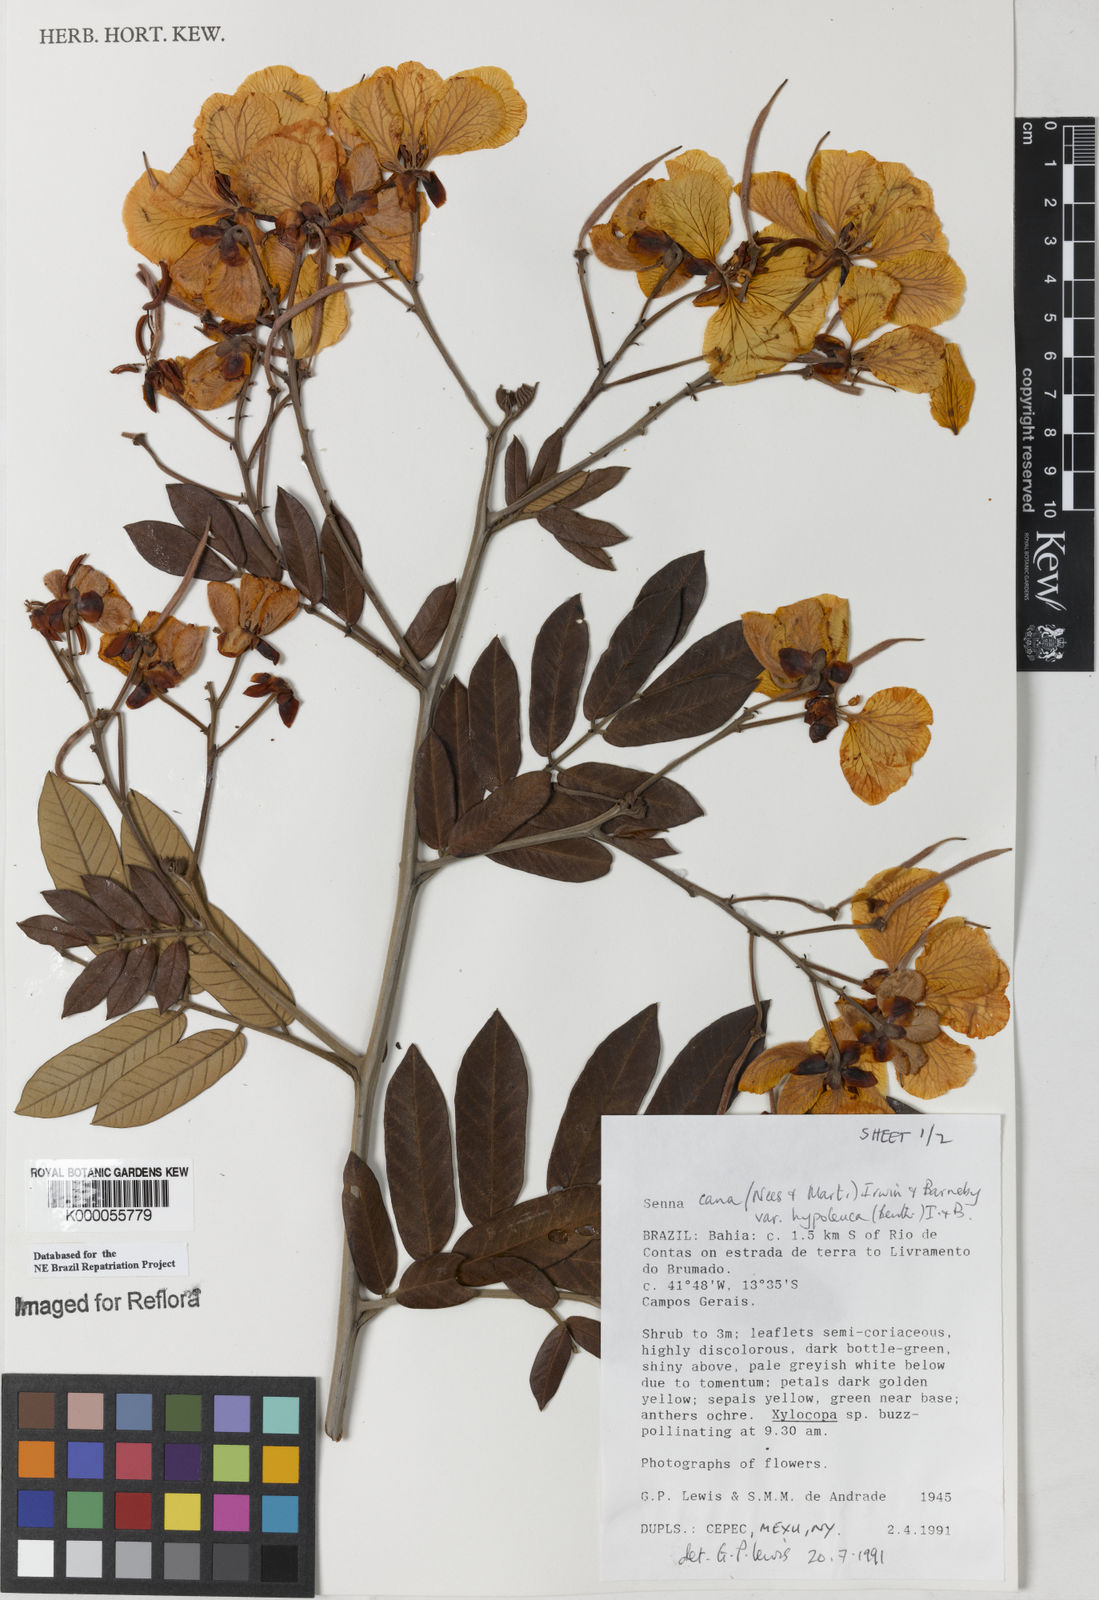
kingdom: Plantae
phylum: Tracheophyta
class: Magnoliopsida
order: Fabales
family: Fabaceae
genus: Senna
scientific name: Senna cana
